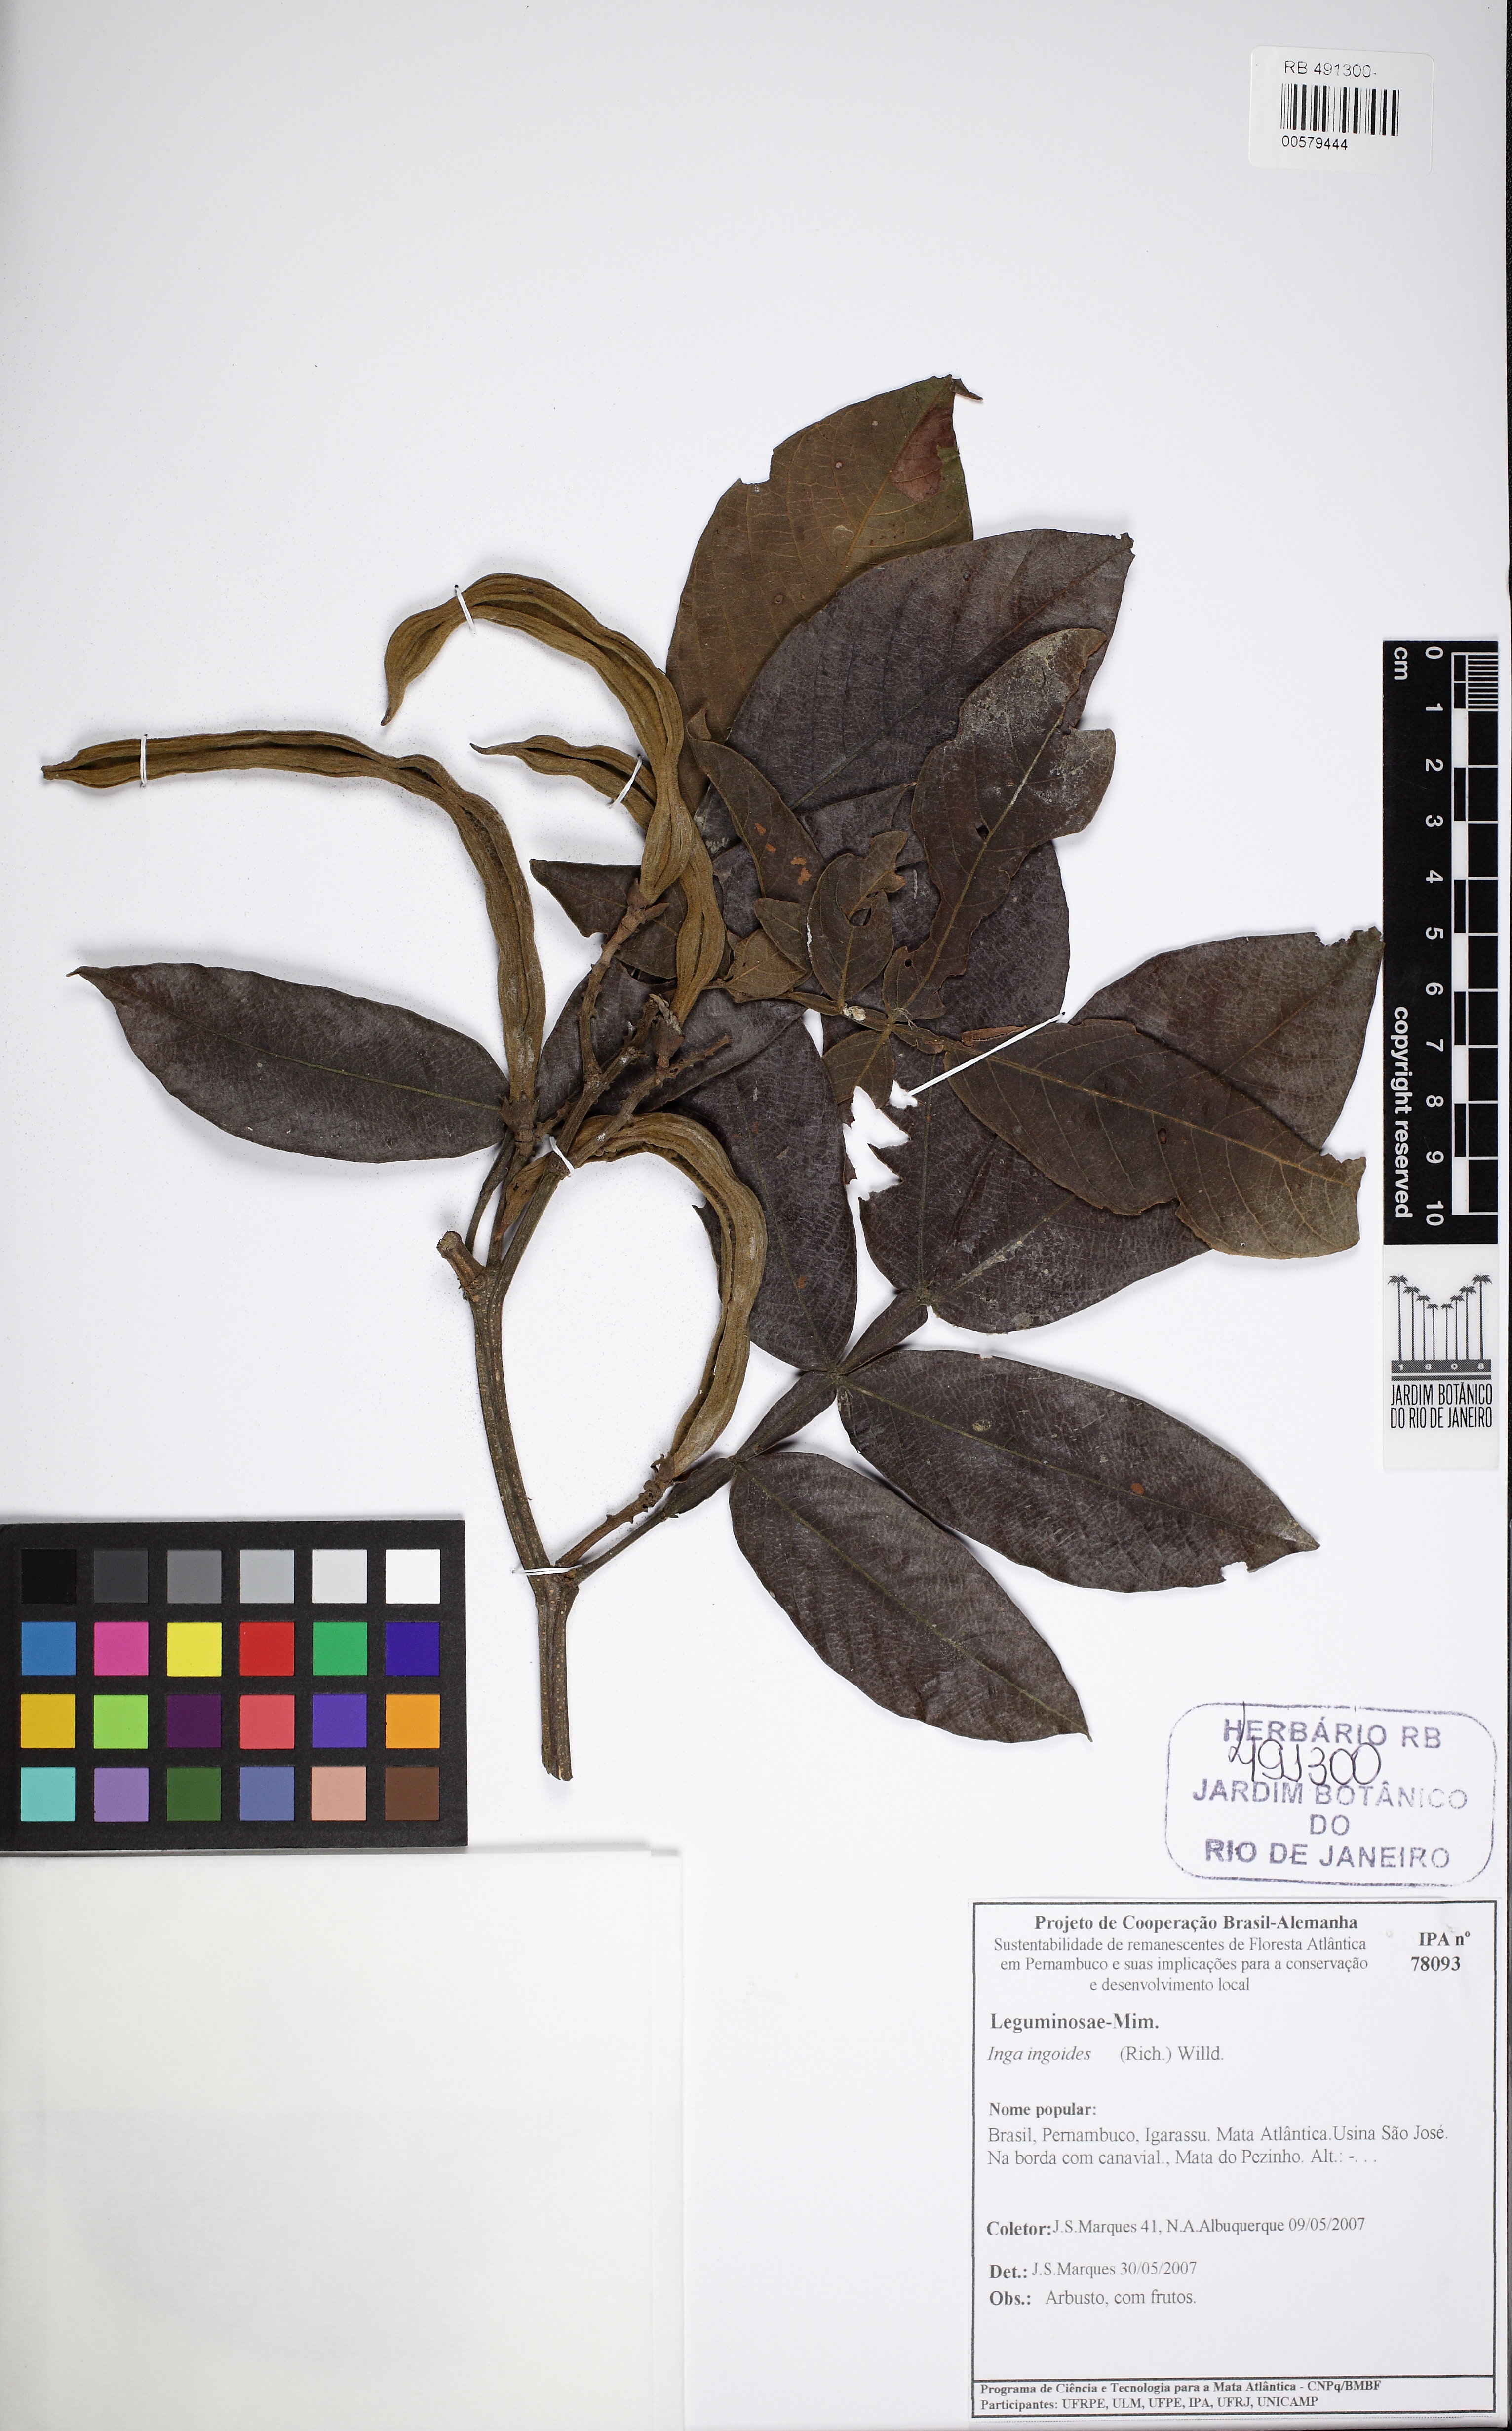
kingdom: Plantae
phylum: Tracheophyta
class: Magnoliopsida
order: Fabales
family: Fabaceae
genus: Inga
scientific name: Inga ingoides
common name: Spanish ash
